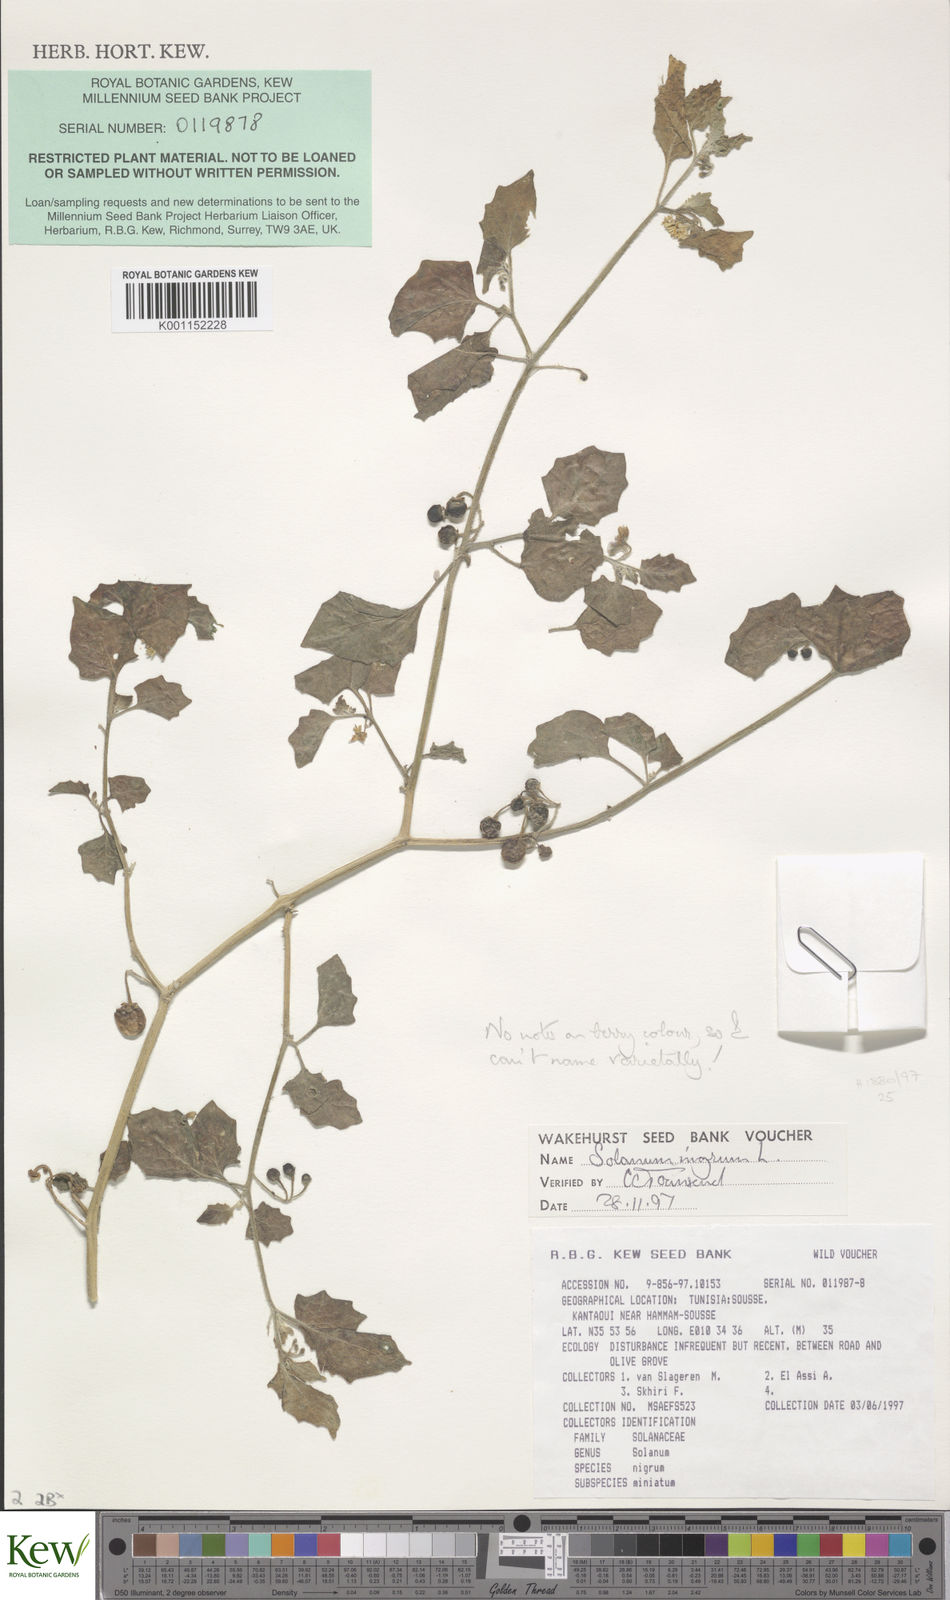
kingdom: Plantae
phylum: Tracheophyta
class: Magnoliopsida
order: Solanales
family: Solanaceae
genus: Solanum
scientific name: Solanum nigrum
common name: Black nightshade
